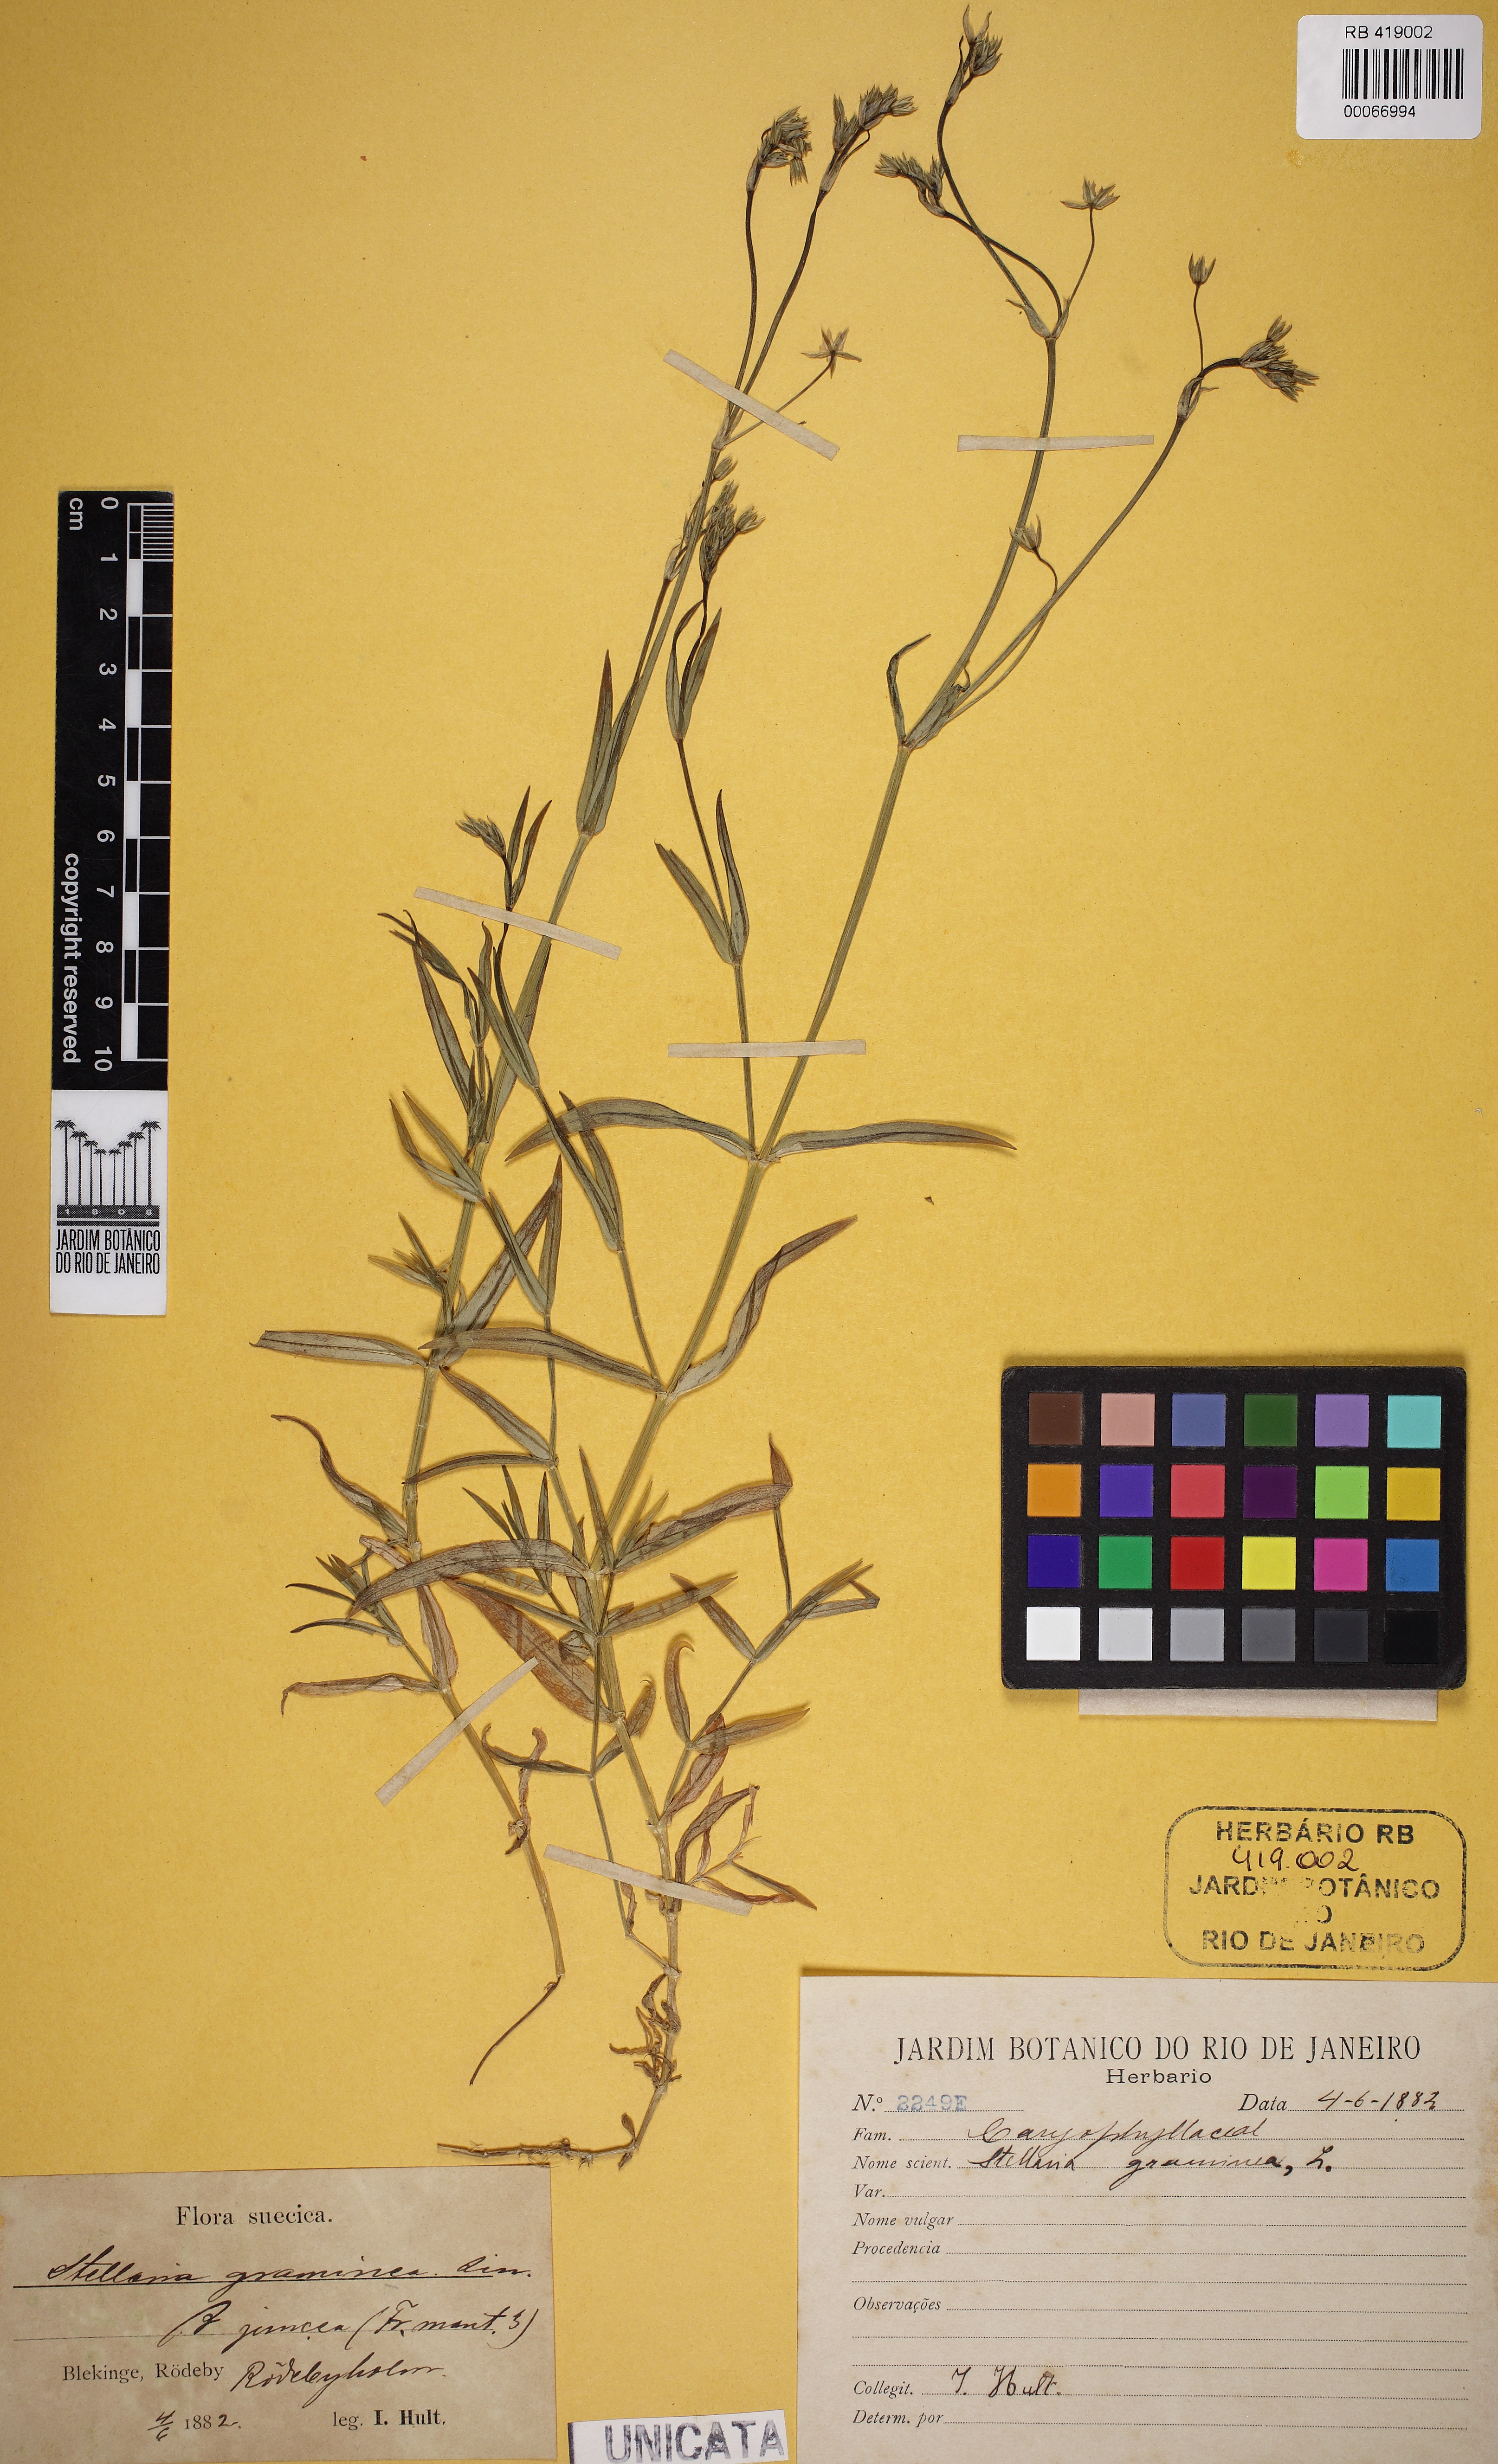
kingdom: Plantae
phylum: Tracheophyta
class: Magnoliopsida
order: Caryophyllales
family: Caryophyllaceae
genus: Stellaria
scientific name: Stellaria graminea
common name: Grass-like starwort
